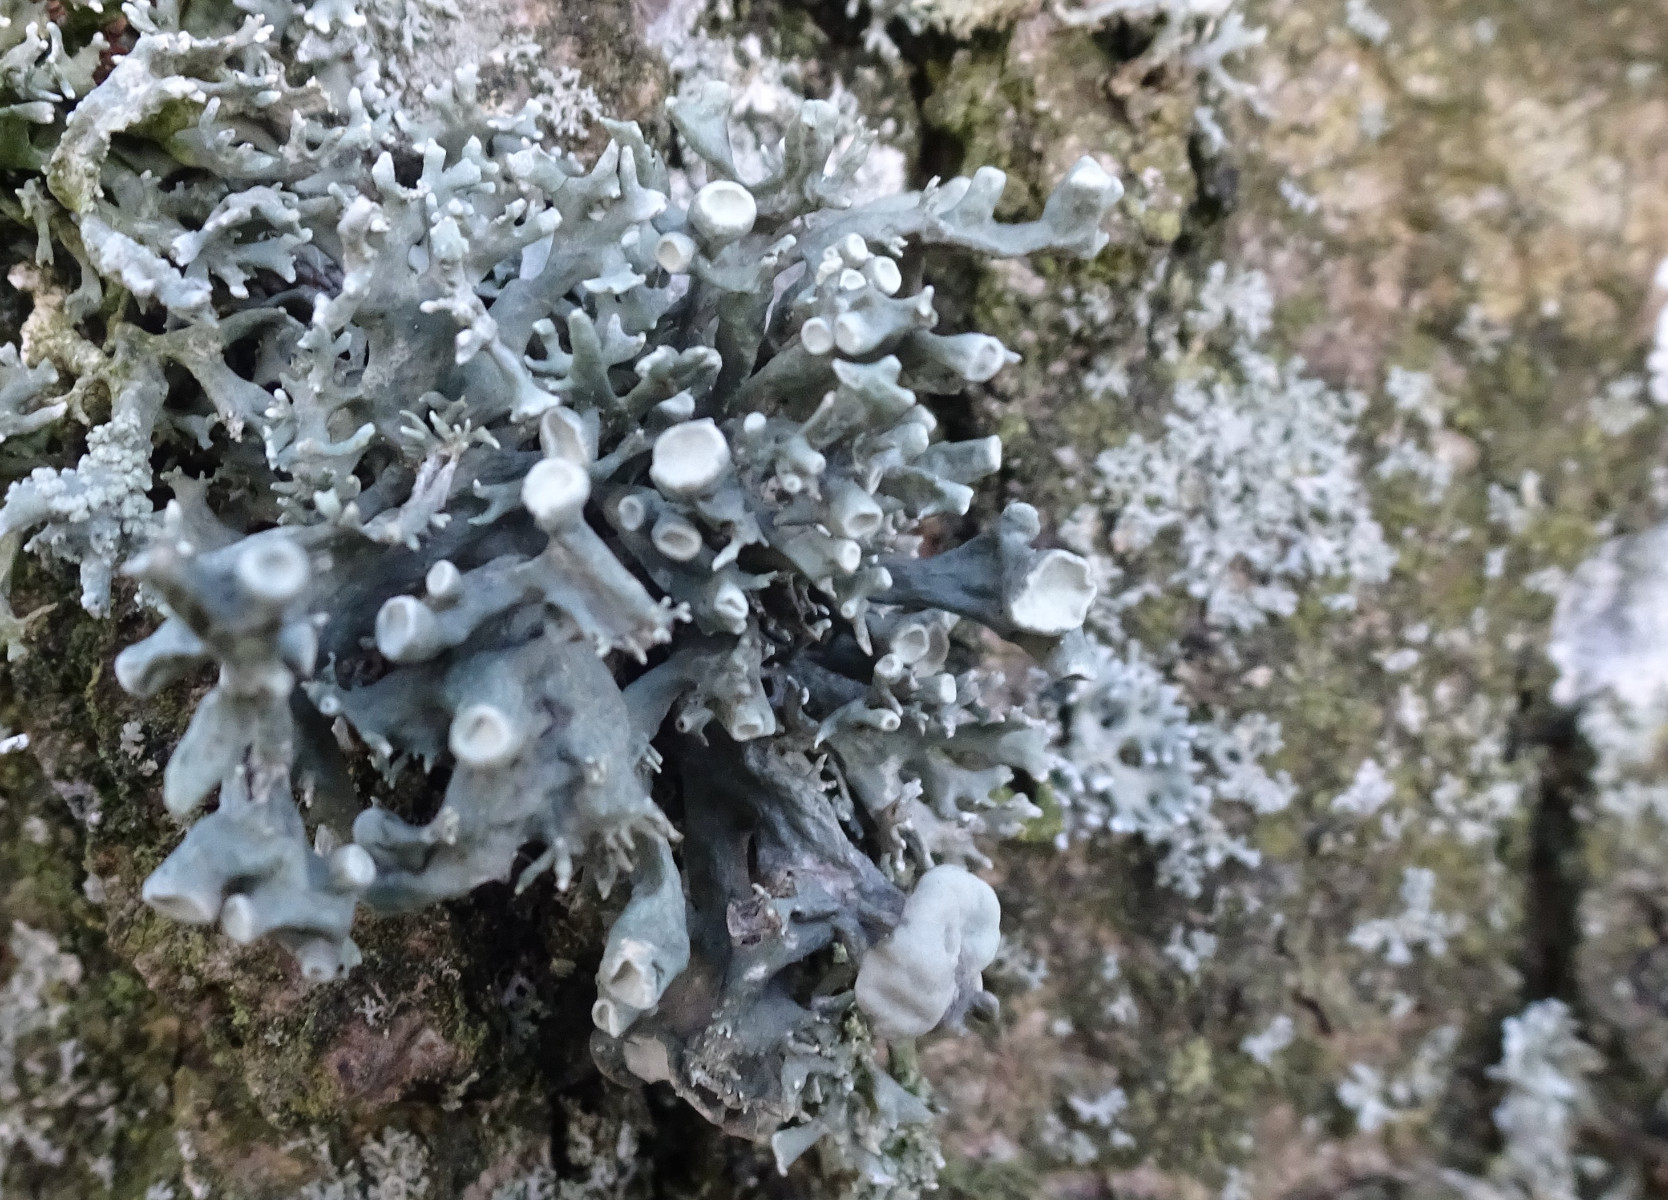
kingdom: Fungi
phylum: Ascomycota
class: Lecanoromycetes
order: Lecanorales
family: Ramalinaceae
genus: Ramalina
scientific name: Ramalina fastigiata
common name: tue-grenlav
